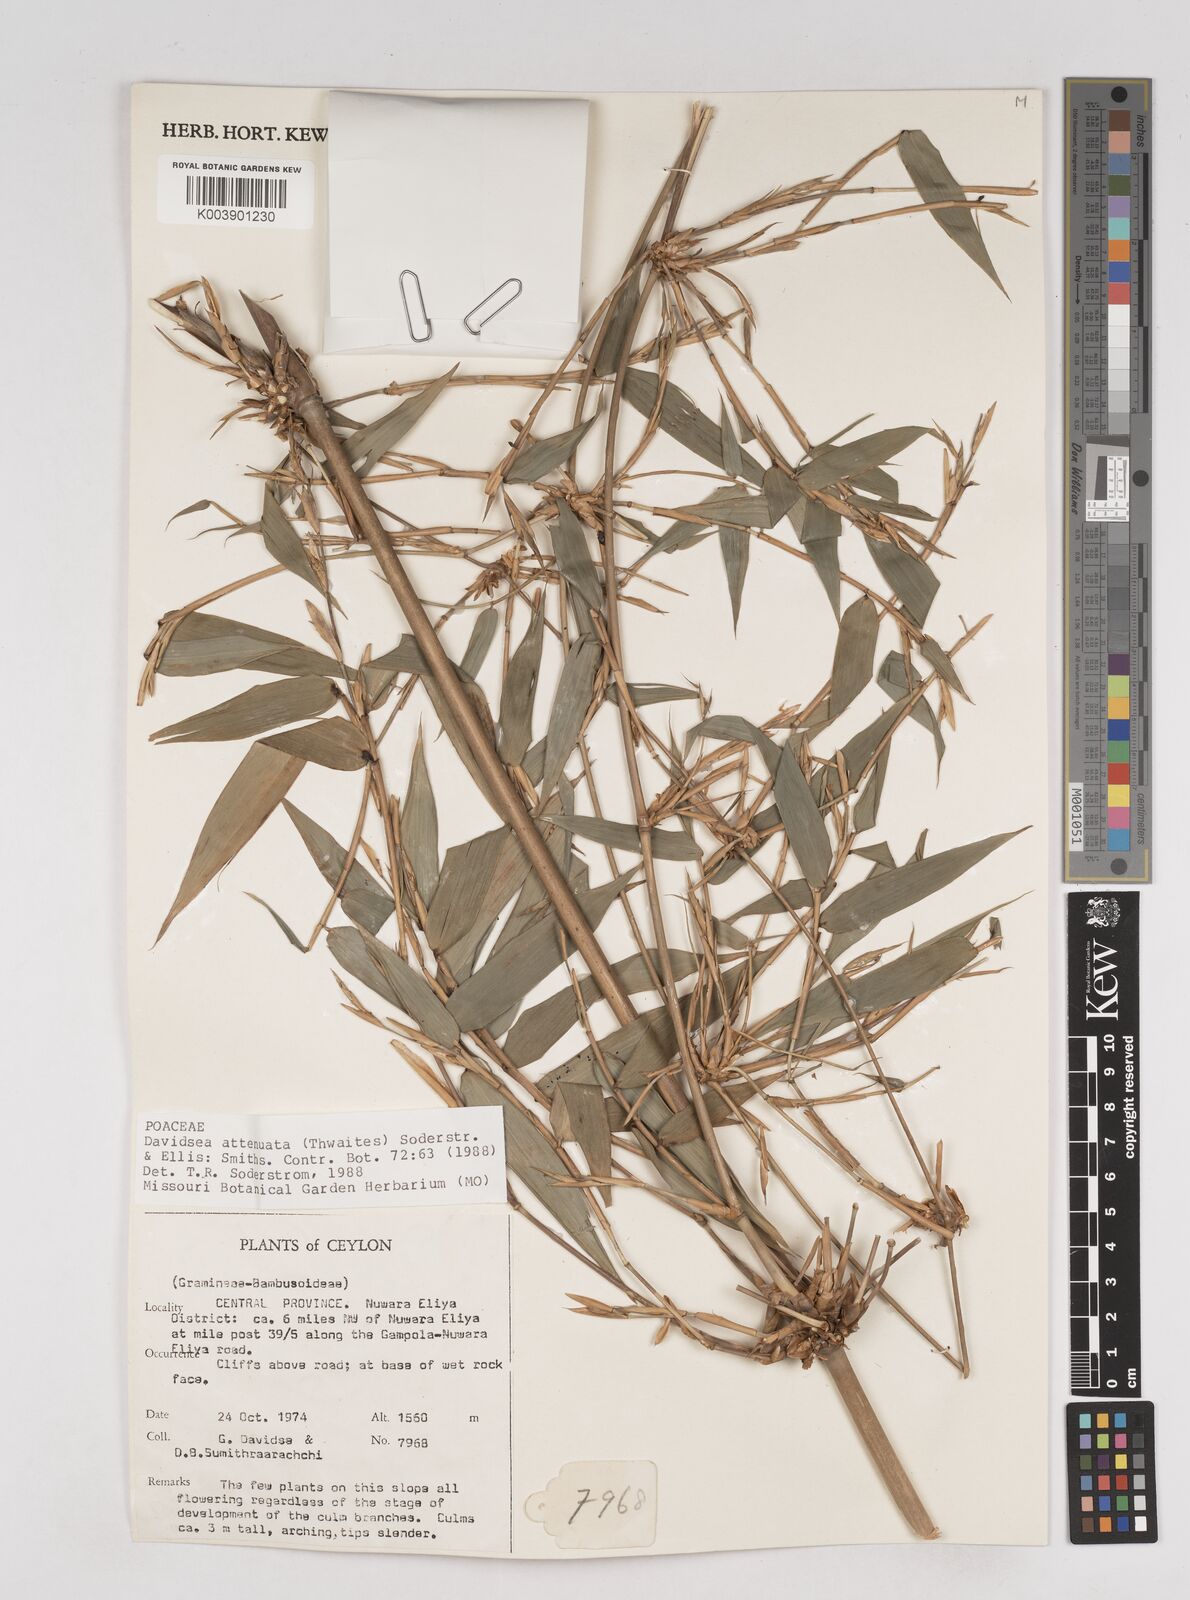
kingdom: Plantae
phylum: Tracheophyta
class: Liliopsida
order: Poales
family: Poaceae
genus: Davidsea
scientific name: Davidsea
